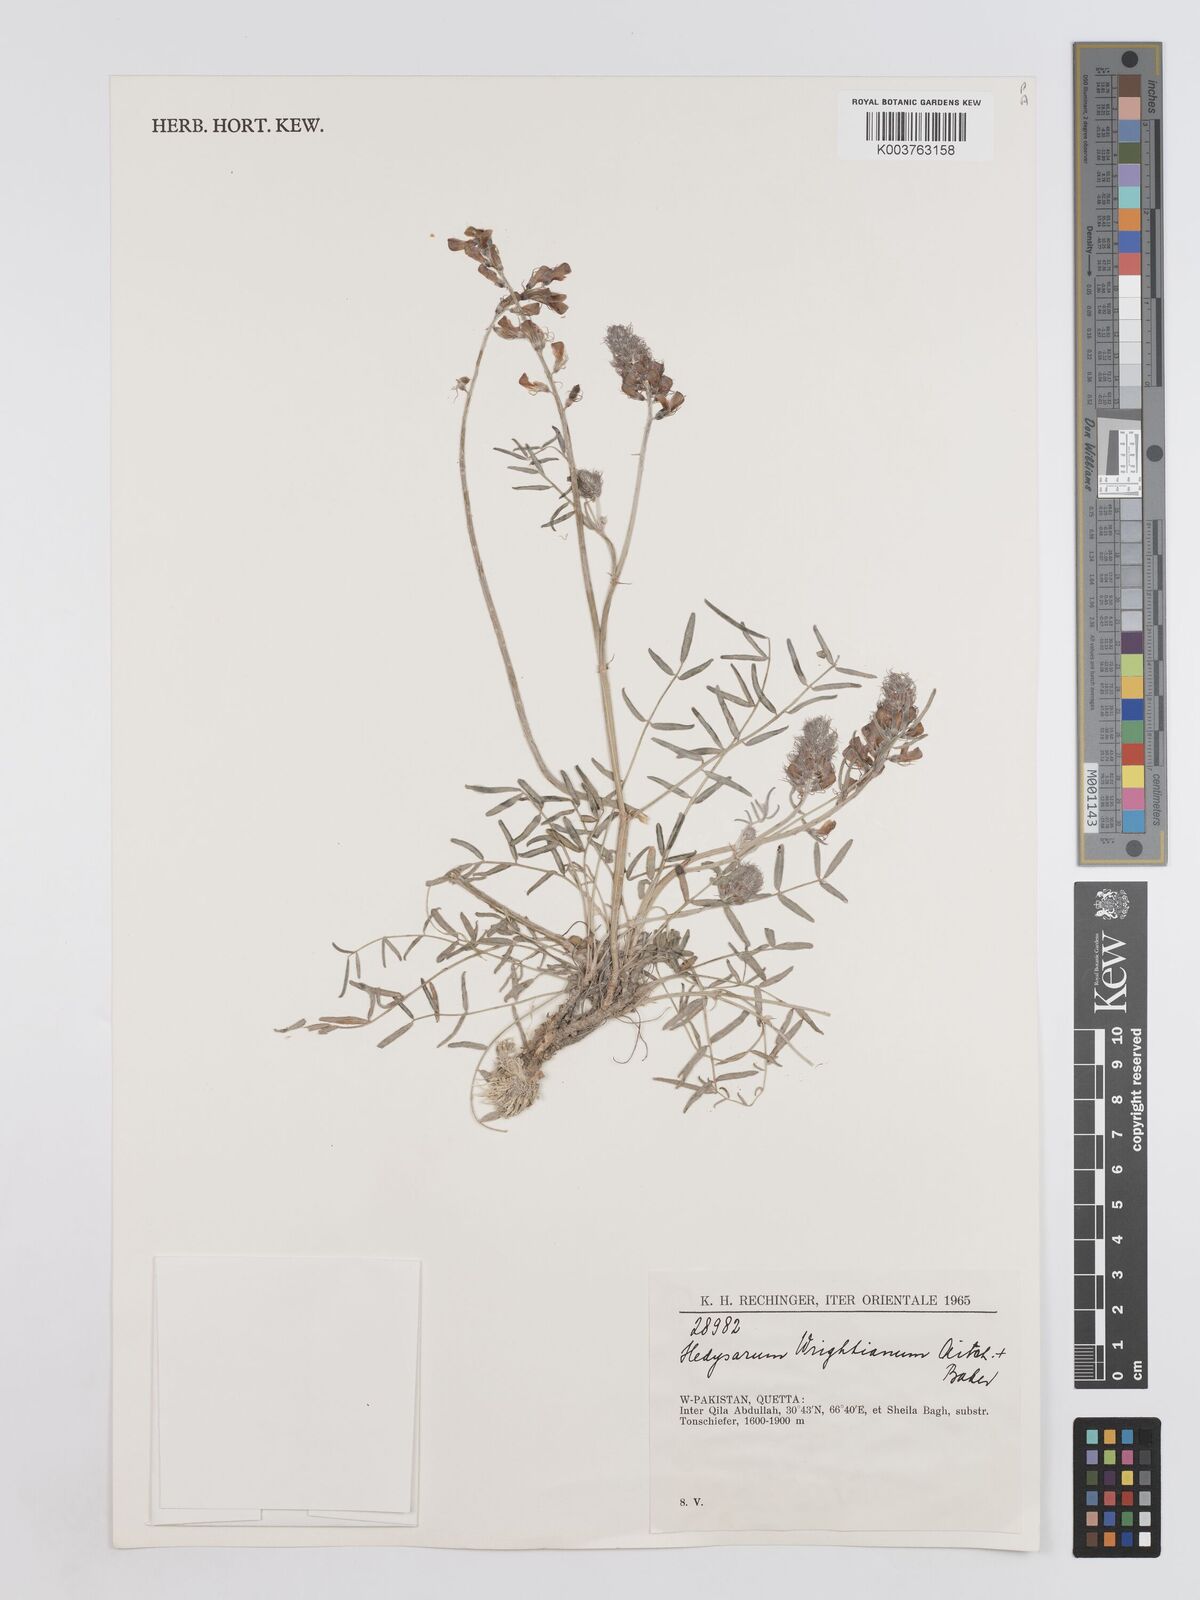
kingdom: Plantae
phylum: Tracheophyta
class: Magnoliopsida
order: Fabales
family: Fabaceae
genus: Hedysarum
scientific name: Hedysarum micropterum
